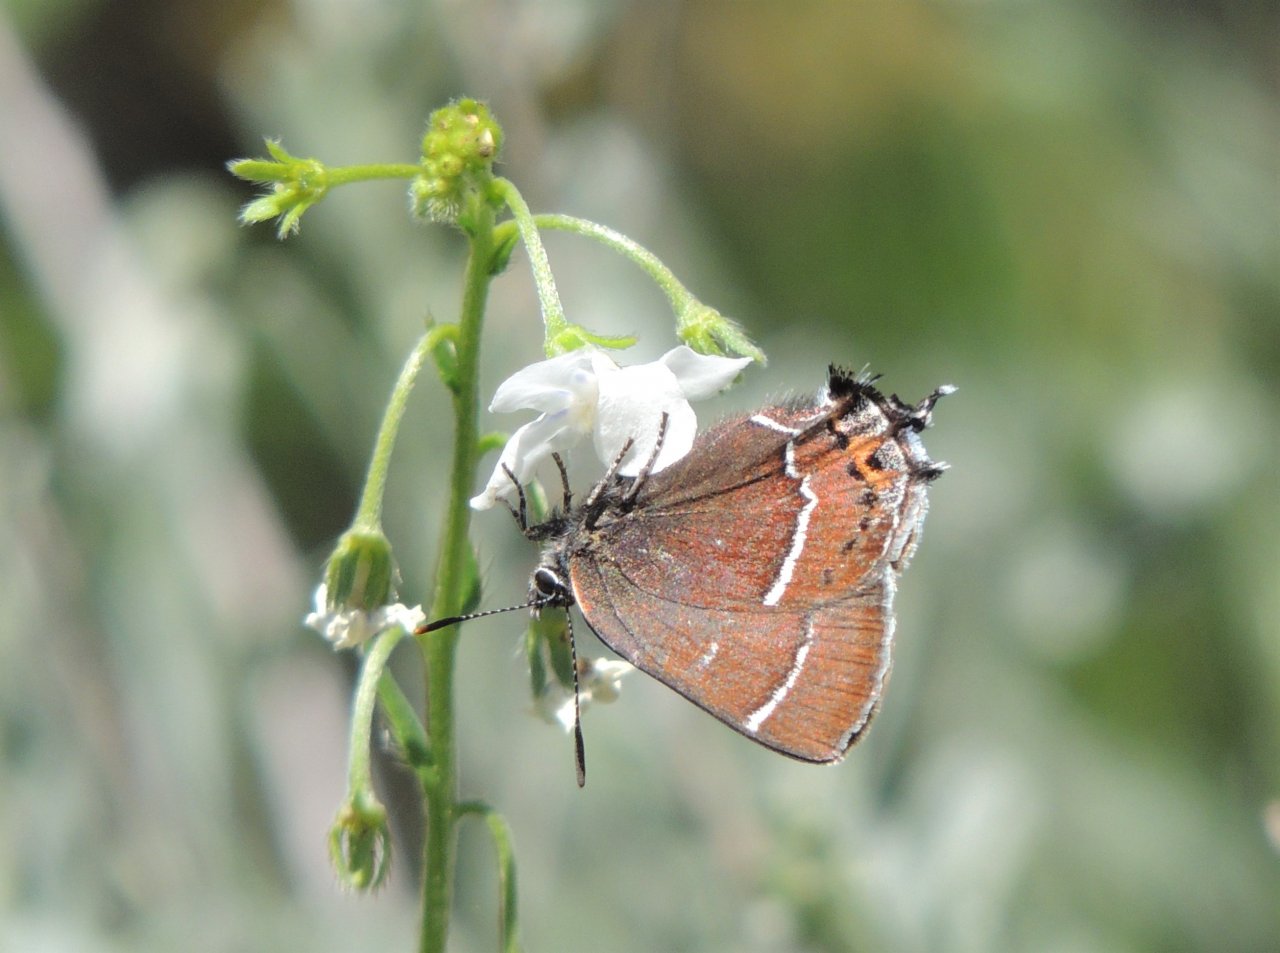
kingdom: Animalia
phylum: Arthropoda
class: Insecta
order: Lepidoptera
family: Lycaenidae
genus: Mitoura
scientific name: Mitoura spinetorum
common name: Thicket Hairstreak
